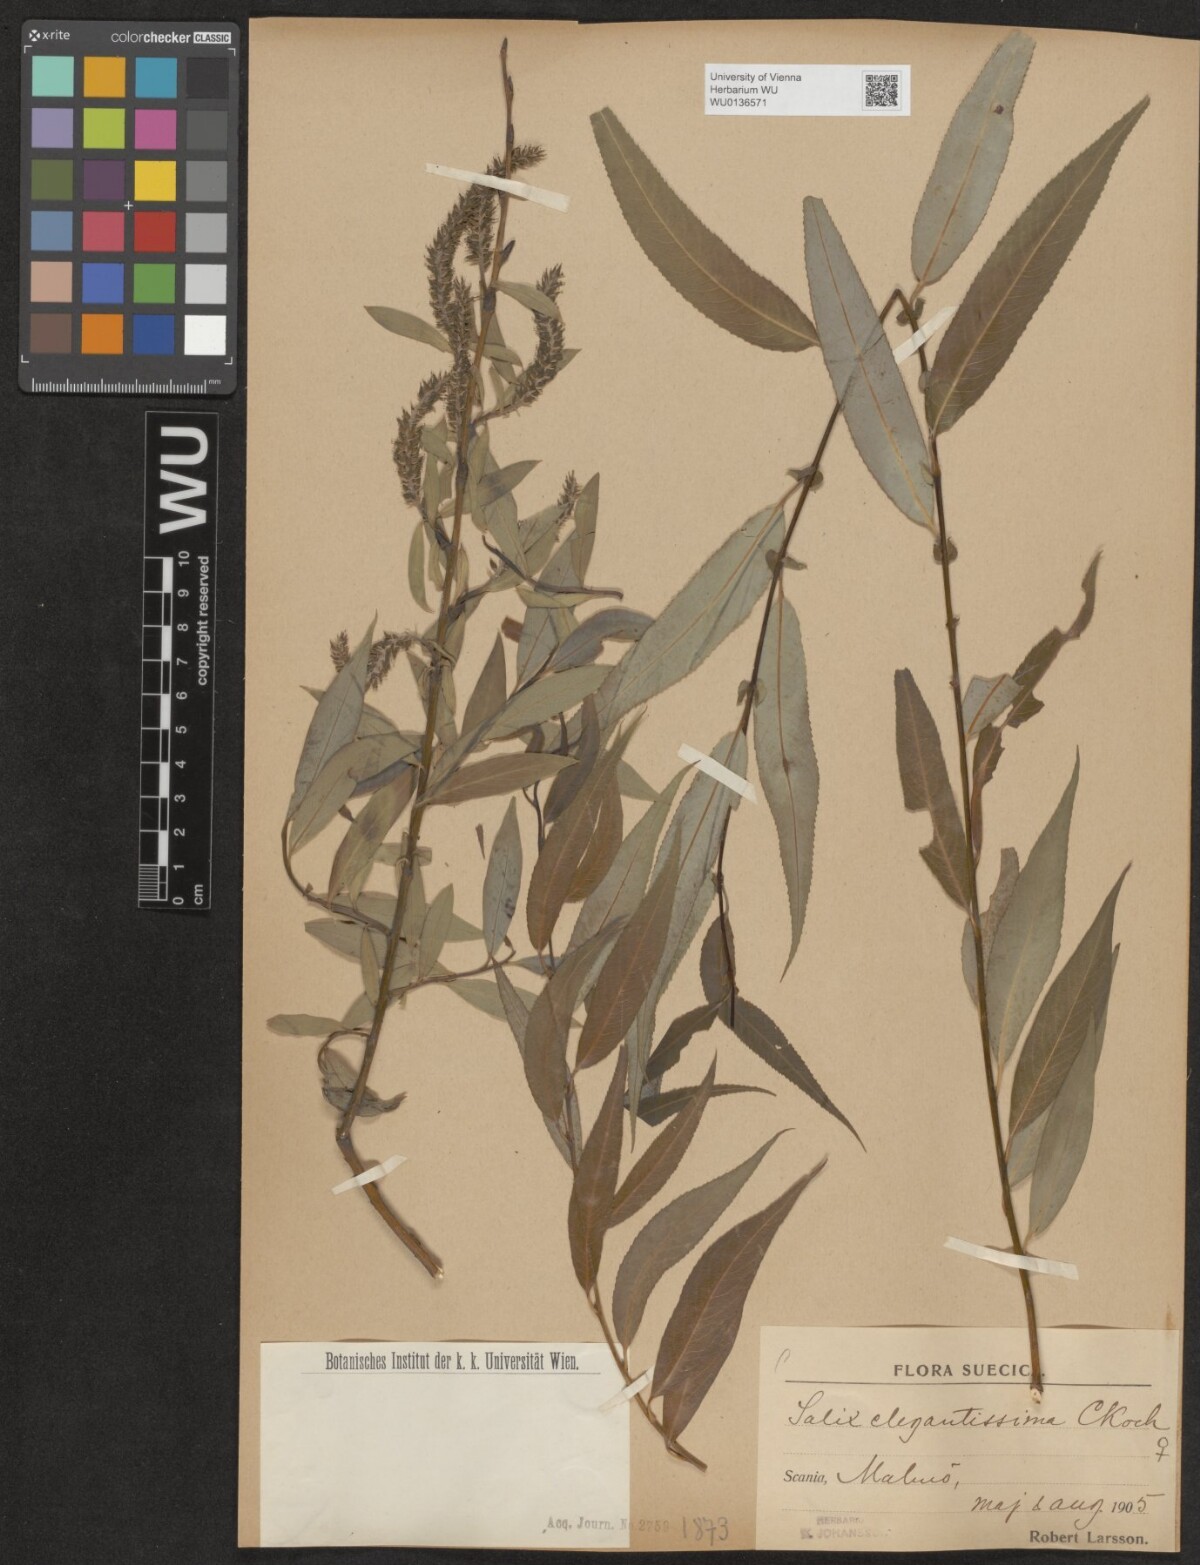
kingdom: Plantae
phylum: Tracheophyta
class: Magnoliopsida
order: Malpighiales
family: Salicaceae
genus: Salix
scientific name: Salix pendulina
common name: Wisconsin weeping willow
